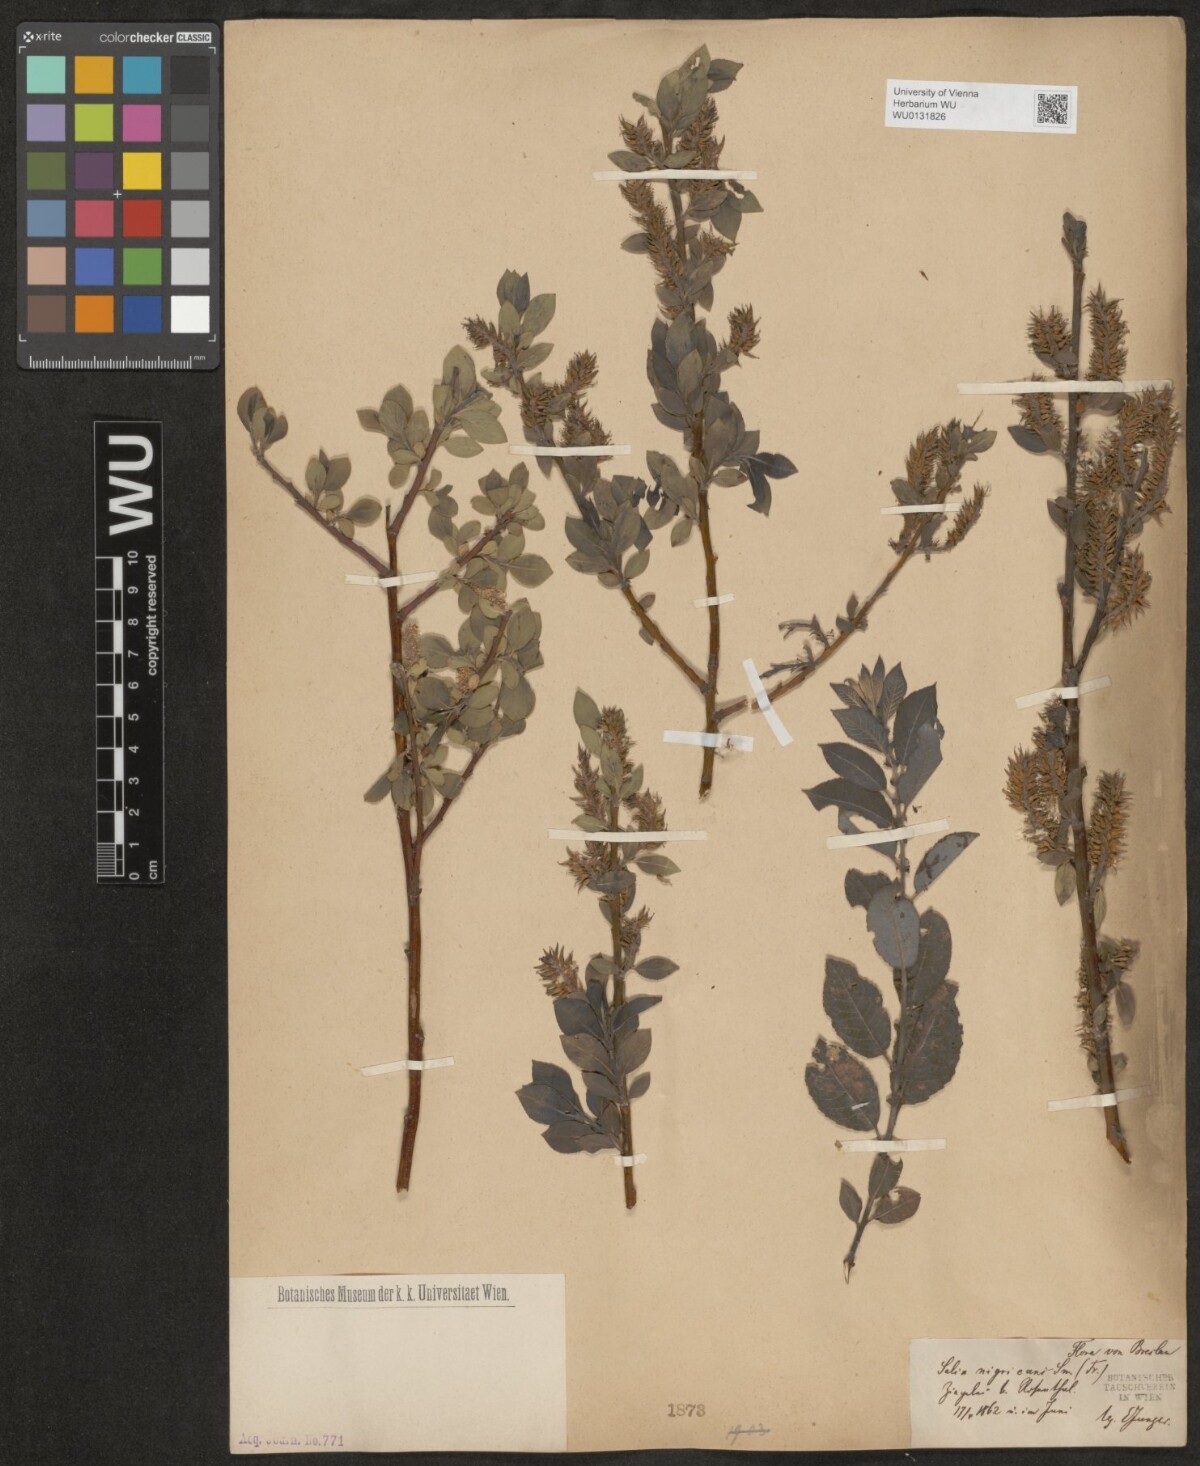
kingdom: Plantae
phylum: Tracheophyta
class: Magnoliopsida
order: Malpighiales
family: Salicaceae
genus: Salix
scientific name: Salix myrsinifolia
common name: Dark-leaved willow
